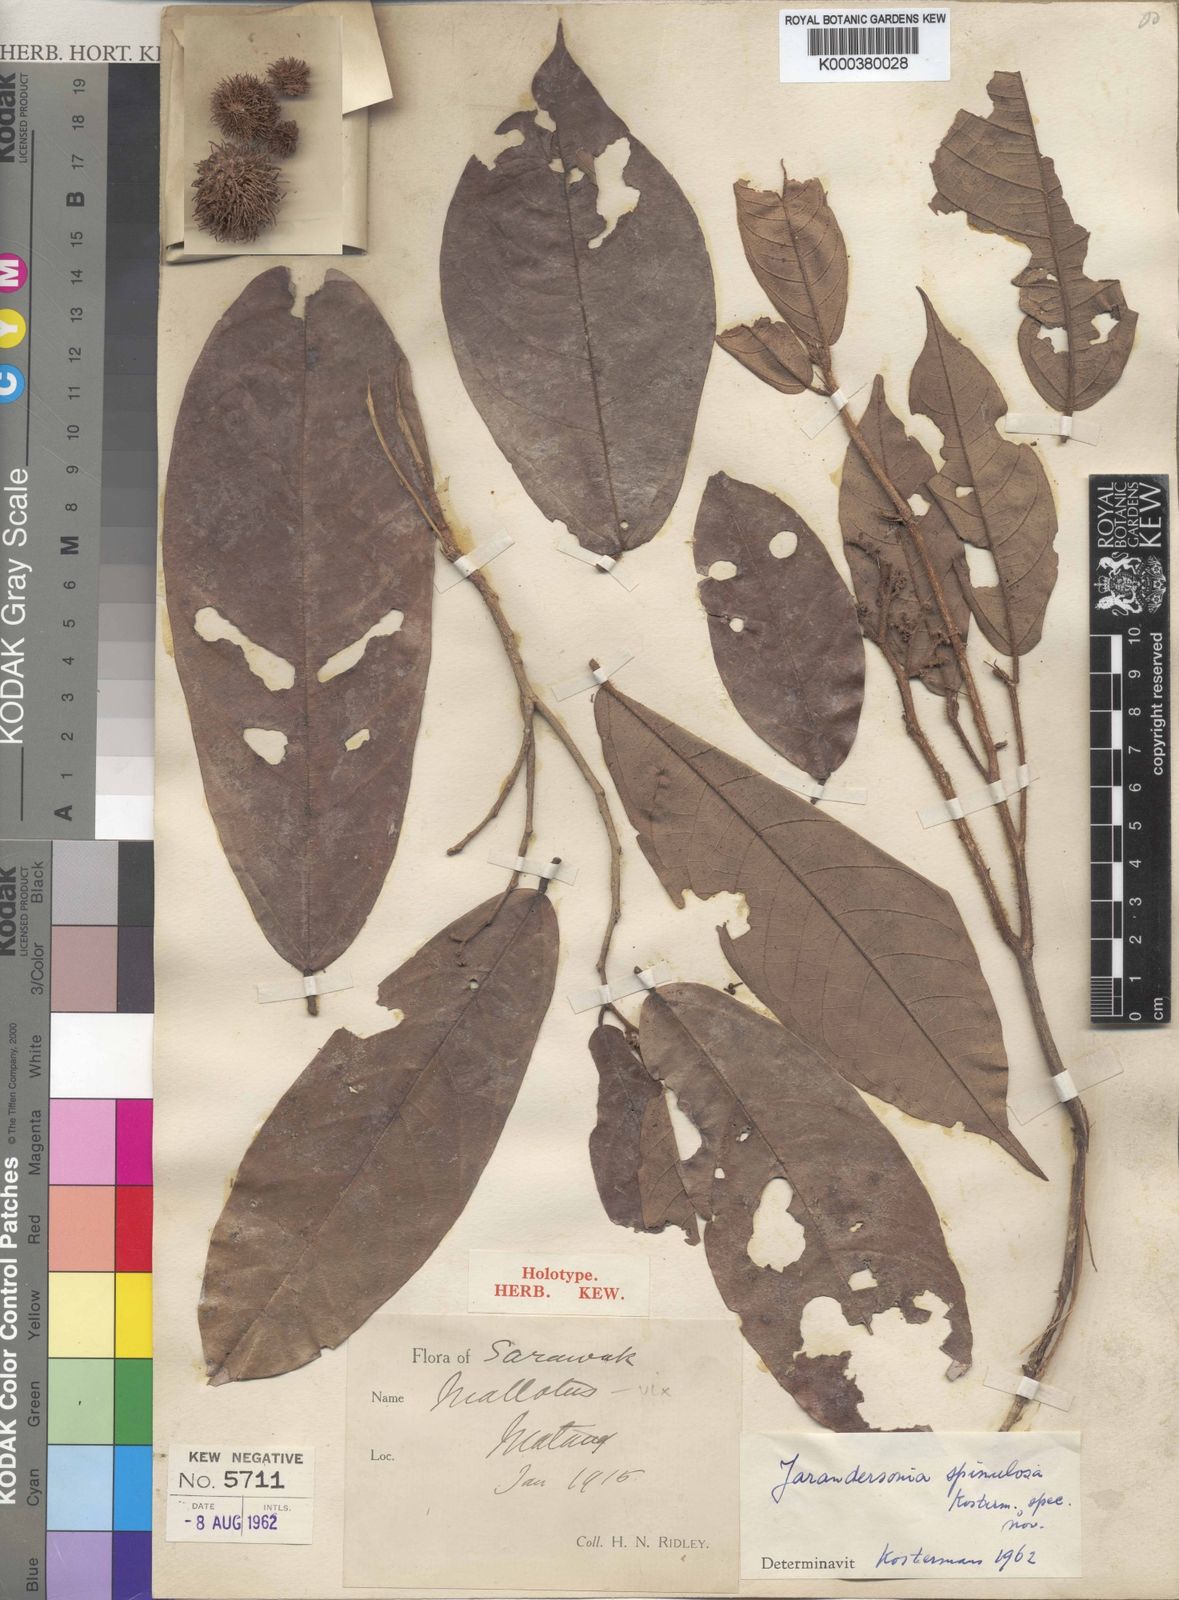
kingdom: Plantae
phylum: Tracheophyta
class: Magnoliopsida
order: Malvales
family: Malvaceae
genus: Jarandersonia
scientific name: Jarandersonia spinulosa
